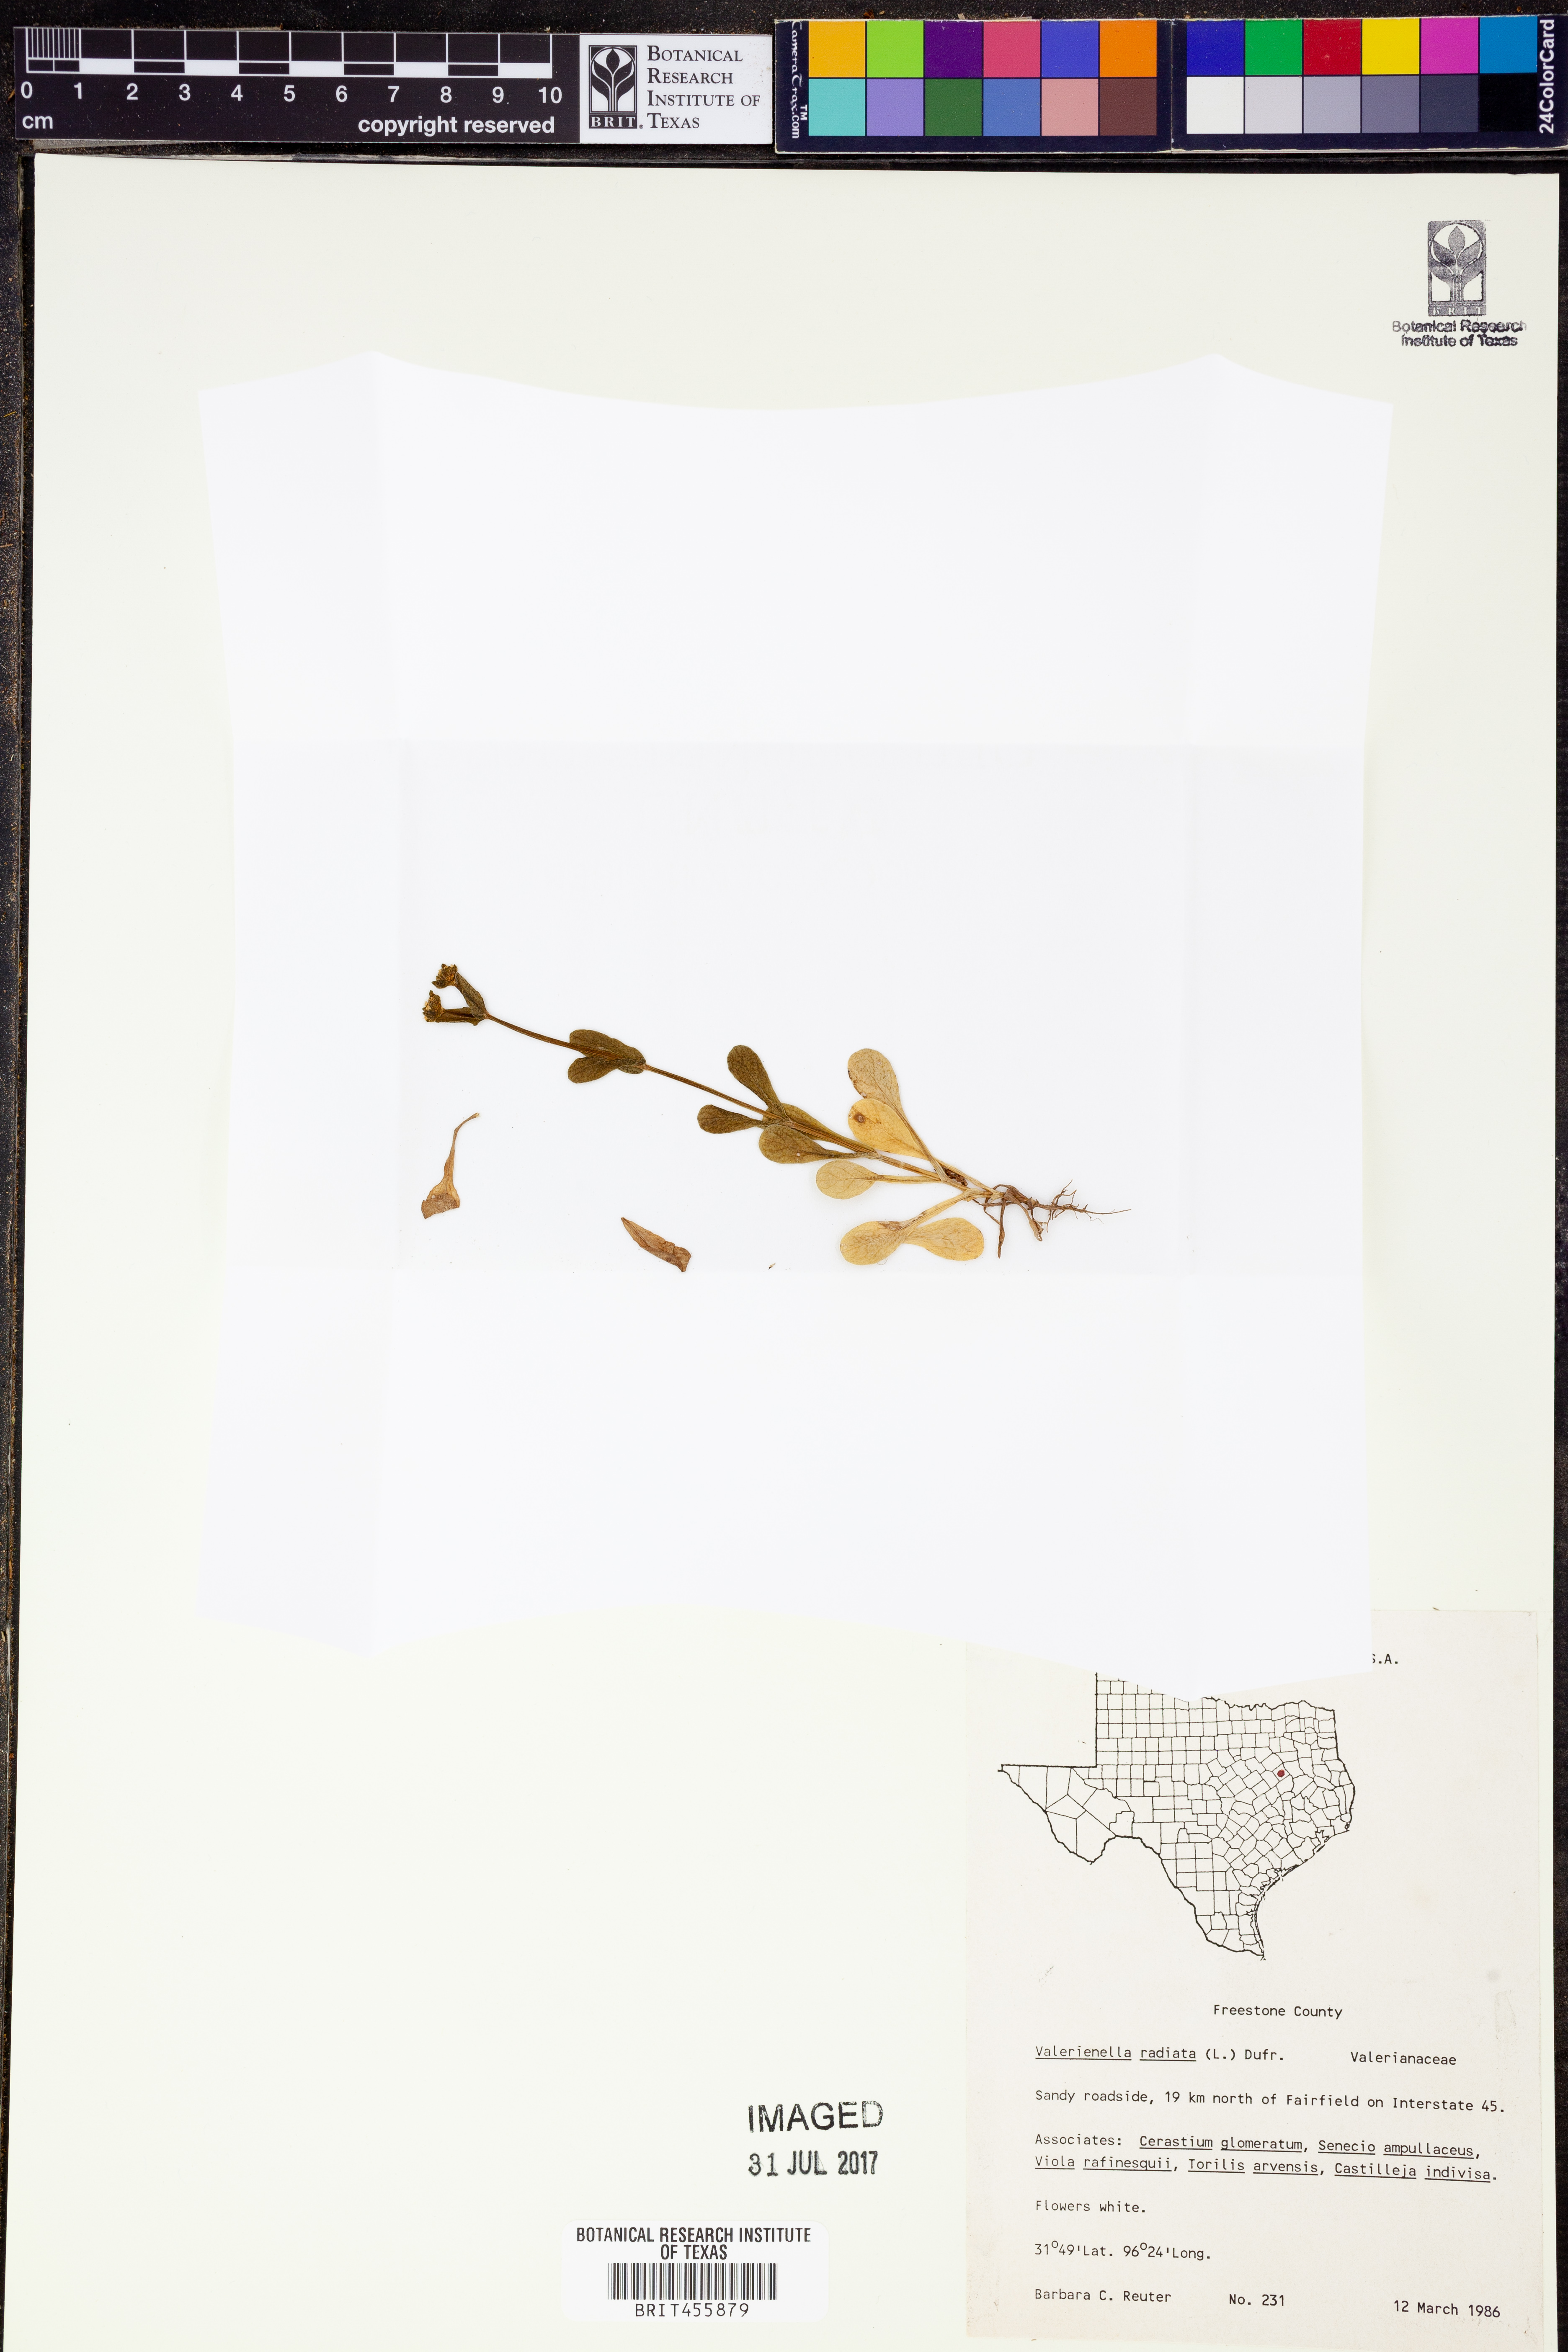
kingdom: Plantae
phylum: Tracheophyta
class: Magnoliopsida
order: Dipsacales
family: Caprifoliaceae
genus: Valerianella
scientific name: Valerianella radiata
